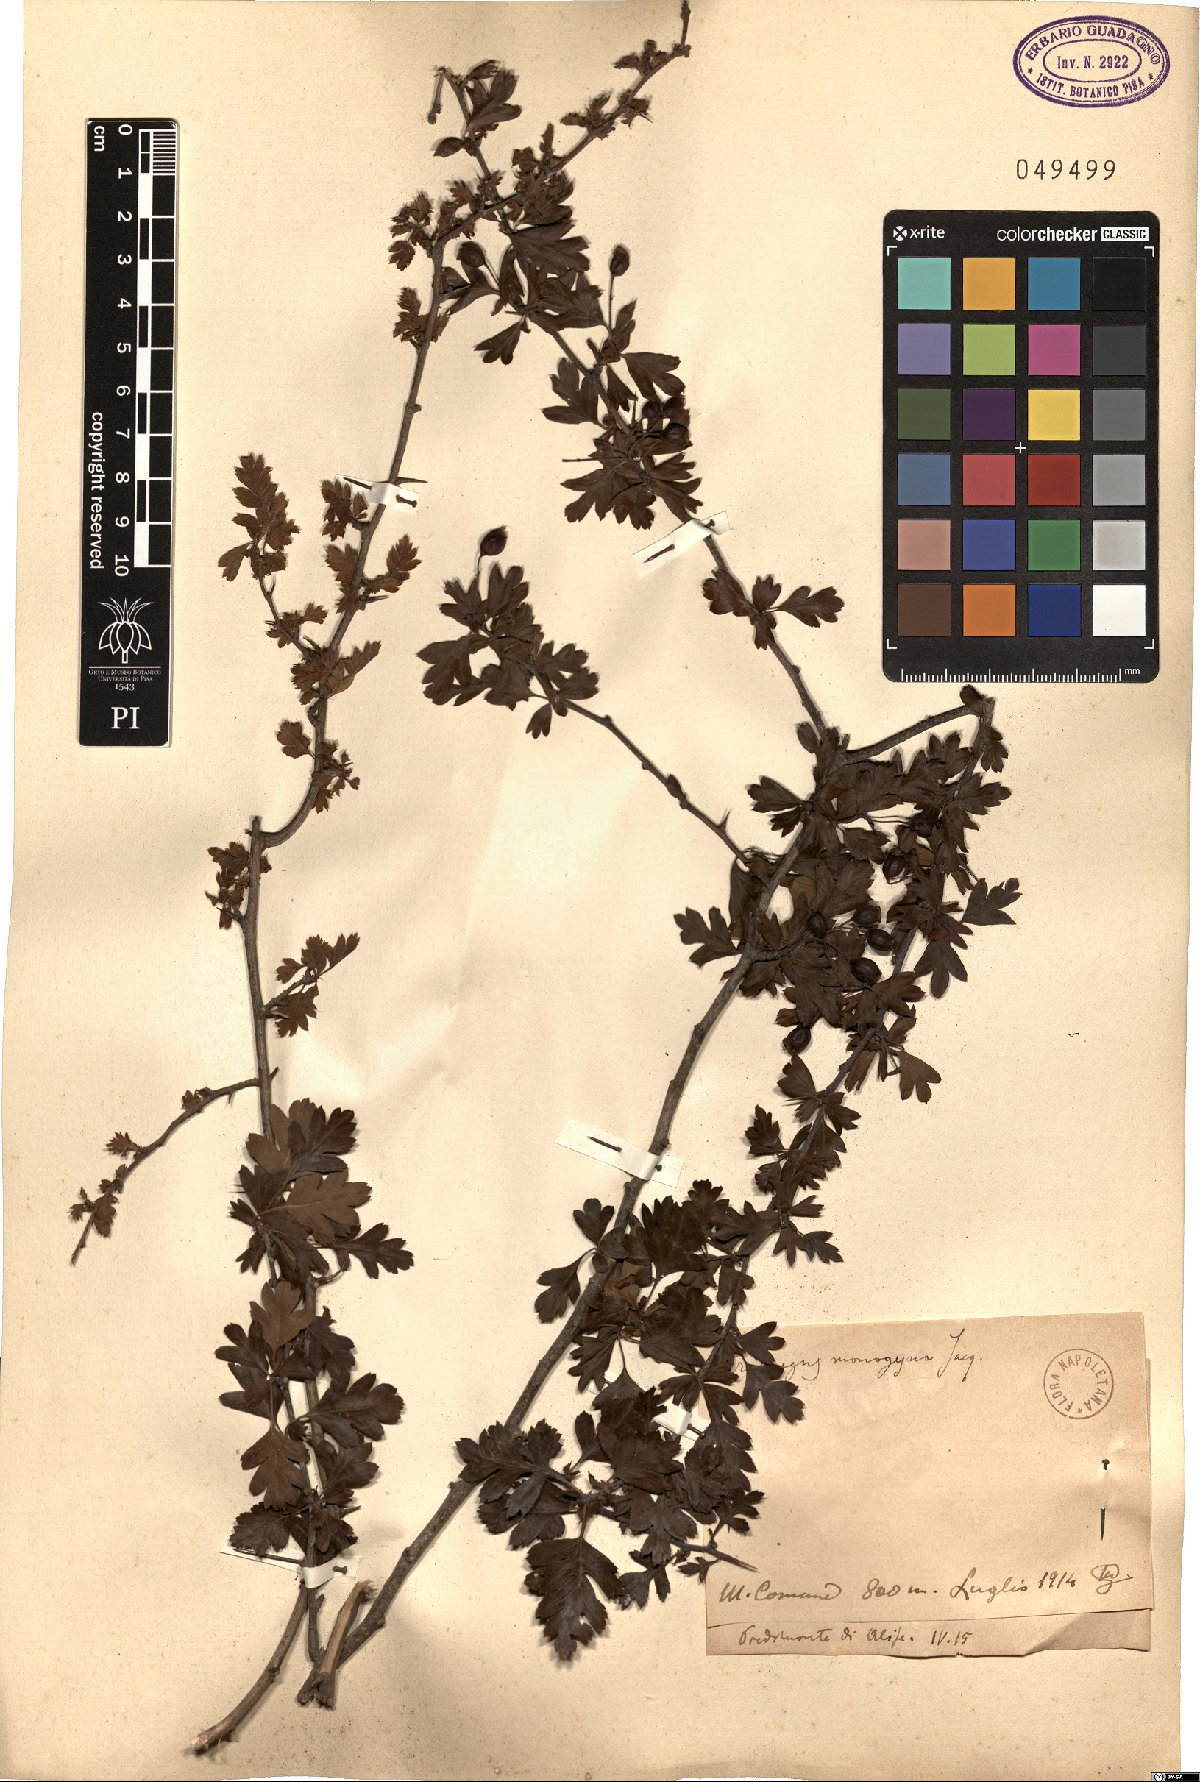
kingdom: Plantae
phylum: Tracheophyta
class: Magnoliopsida
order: Rosales
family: Rosaceae
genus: Crataegus
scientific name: Crataegus monogyna
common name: Hawthorn
